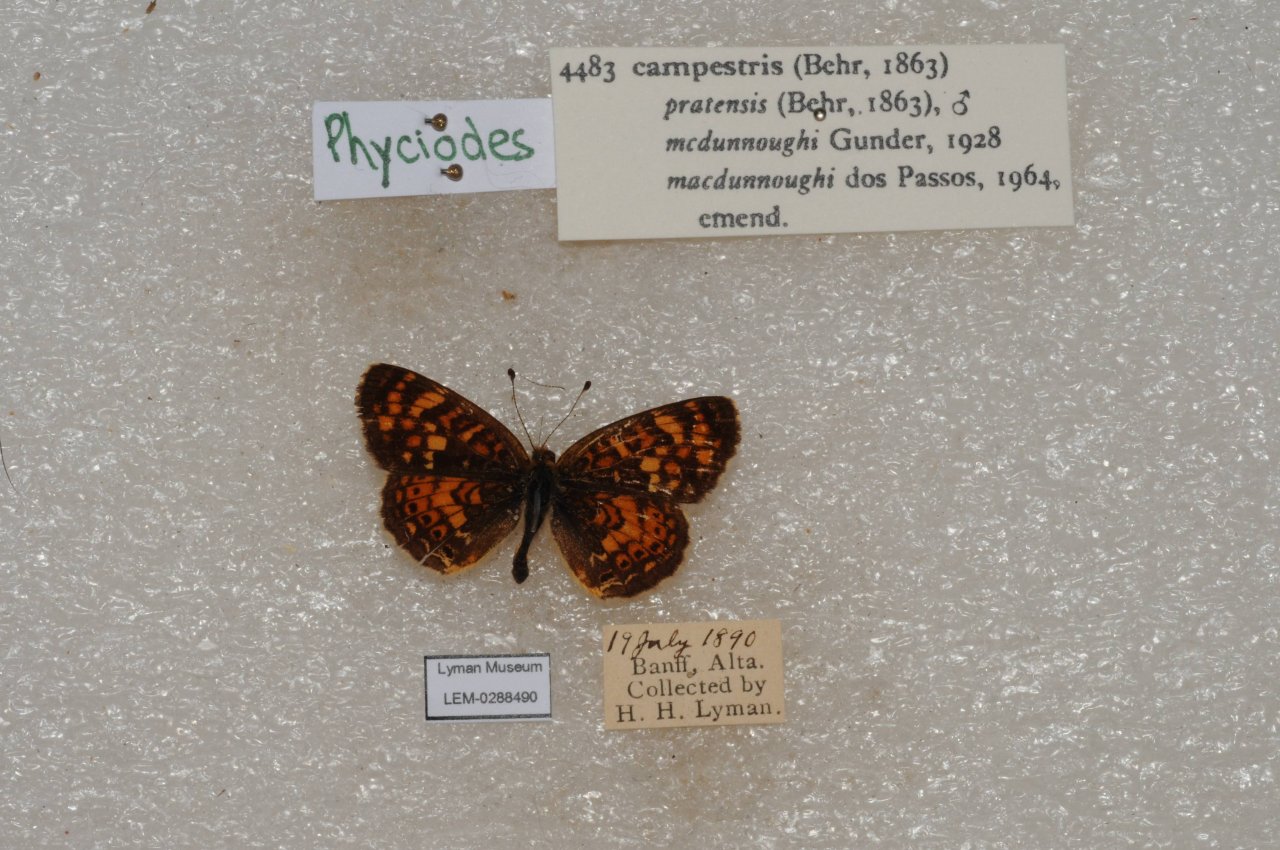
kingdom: Animalia
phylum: Arthropoda
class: Insecta
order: Lepidoptera
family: Nymphalidae
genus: Phyciodes
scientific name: Phyciodes tharos
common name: Field Crescent
